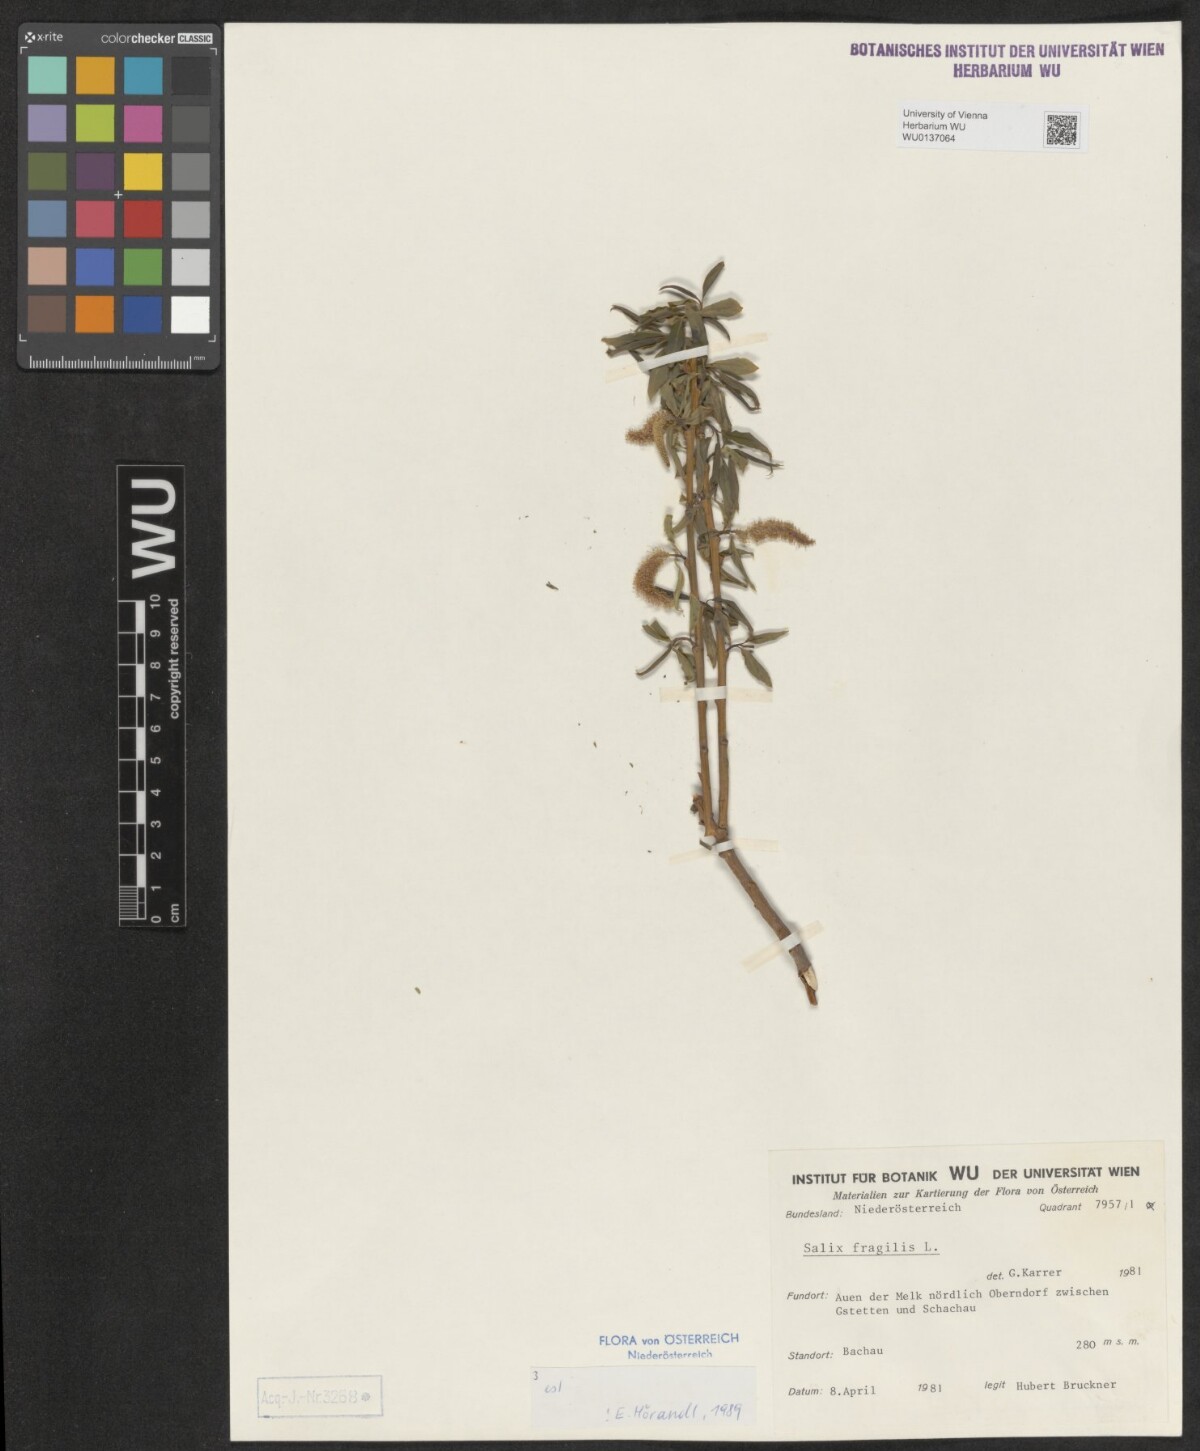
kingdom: Plantae
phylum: Tracheophyta
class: Magnoliopsida
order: Malpighiales
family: Salicaceae
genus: Salix
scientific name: Salix fragilis
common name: Crack willow
